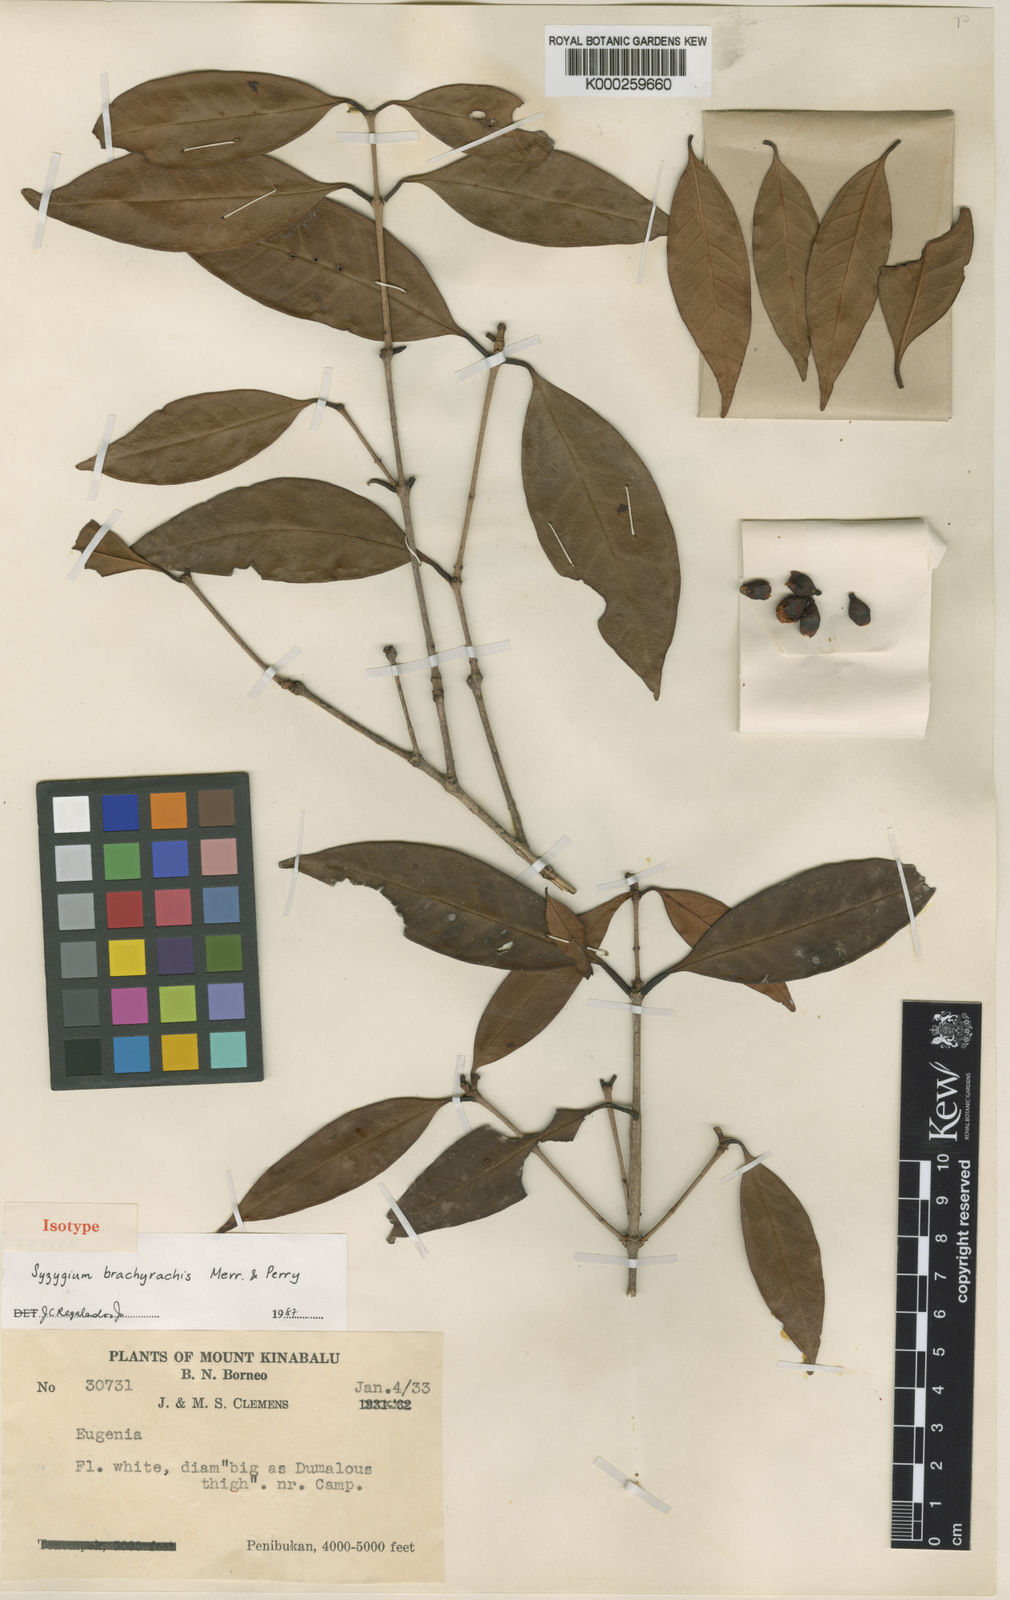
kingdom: Plantae
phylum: Tracheophyta
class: Magnoliopsida
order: Myrtales
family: Myrtaceae
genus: Syzygium
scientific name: Syzygium brachyrachis
